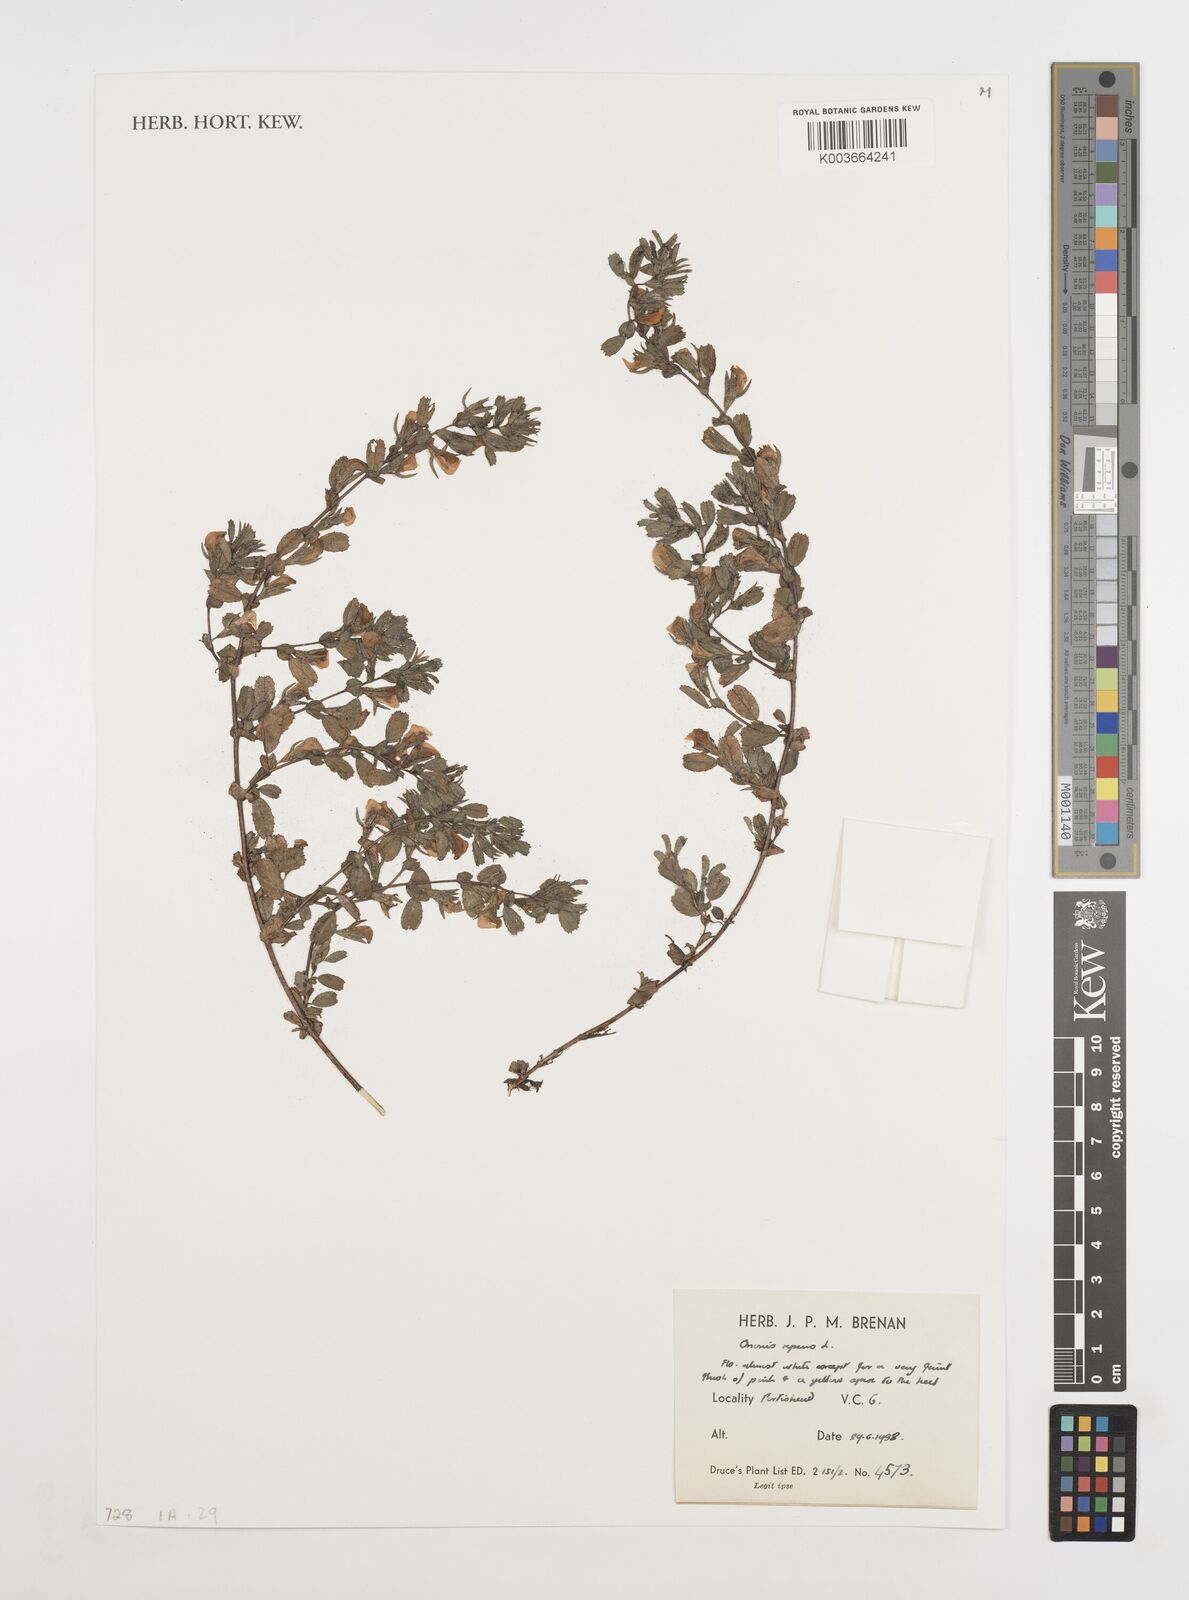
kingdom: Plantae
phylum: Tracheophyta
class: Magnoliopsida
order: Fabales
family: Fabaceae
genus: Ononis
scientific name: Ononis spinosa
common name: Spiny restharrow
